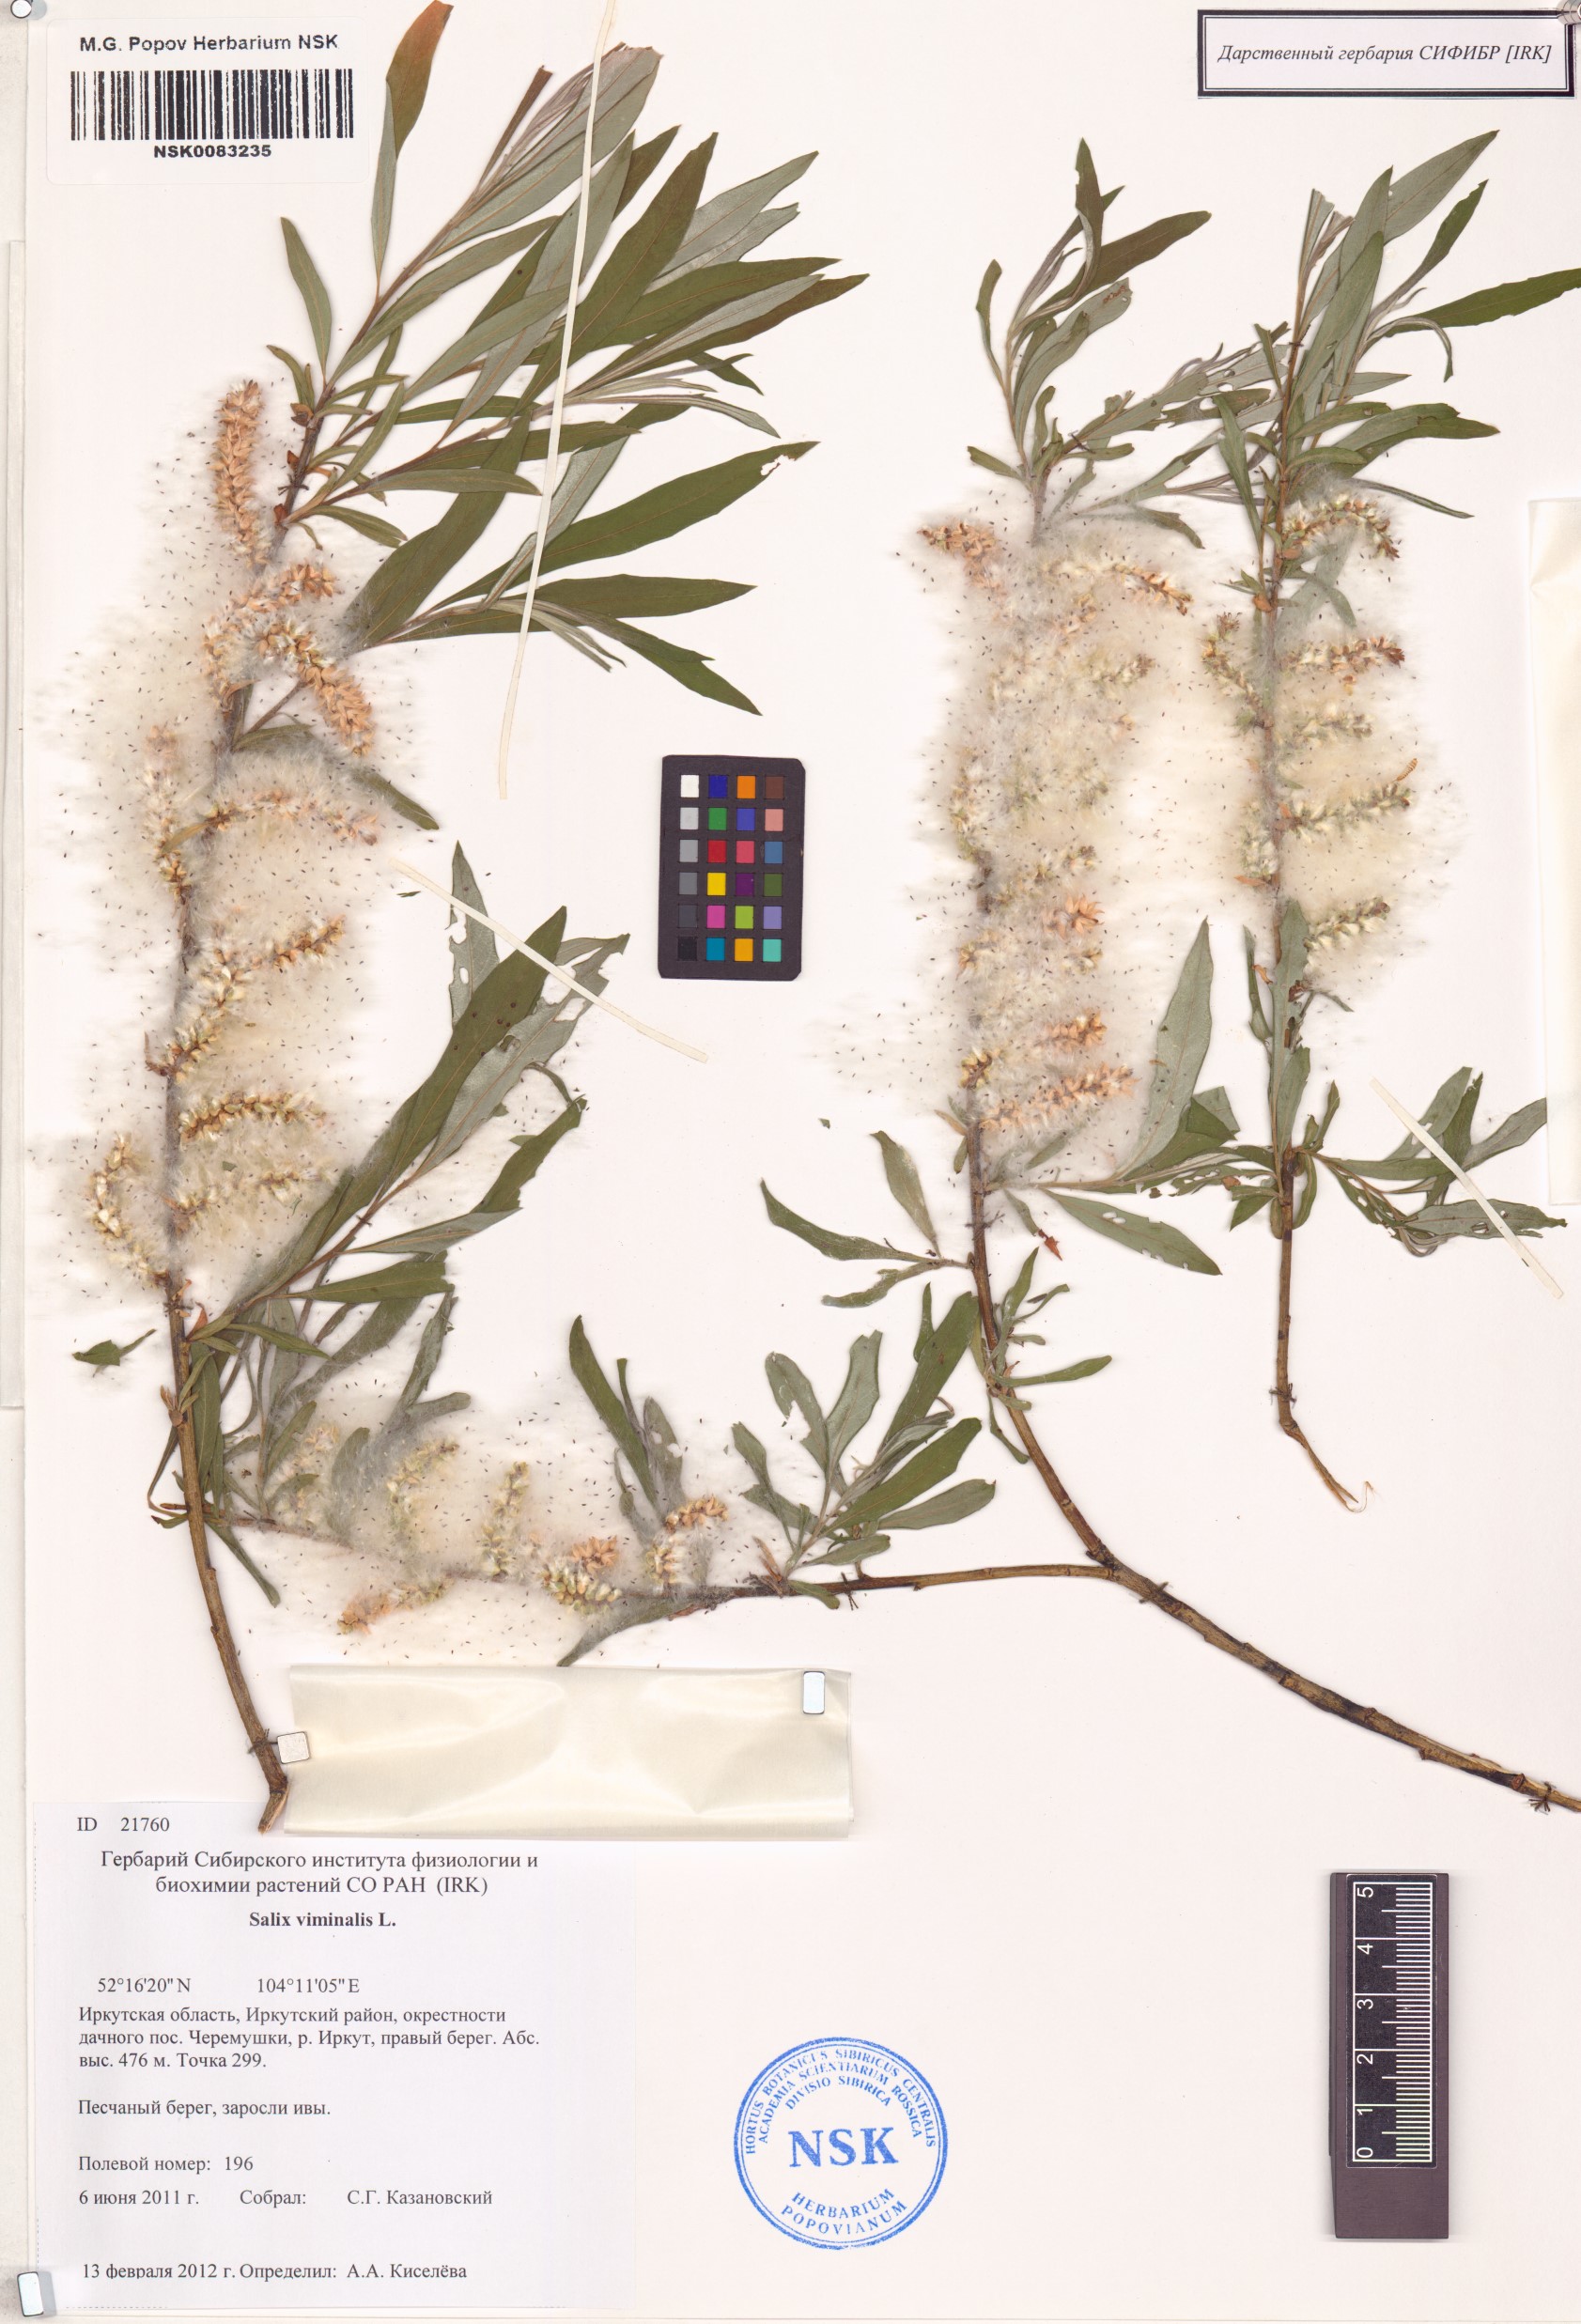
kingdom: Plantae
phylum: Tracheophyta
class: Magnoliopsida
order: Malpighiales
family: Salicaceae
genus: Salix
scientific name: Salix viminalis
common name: Osier
